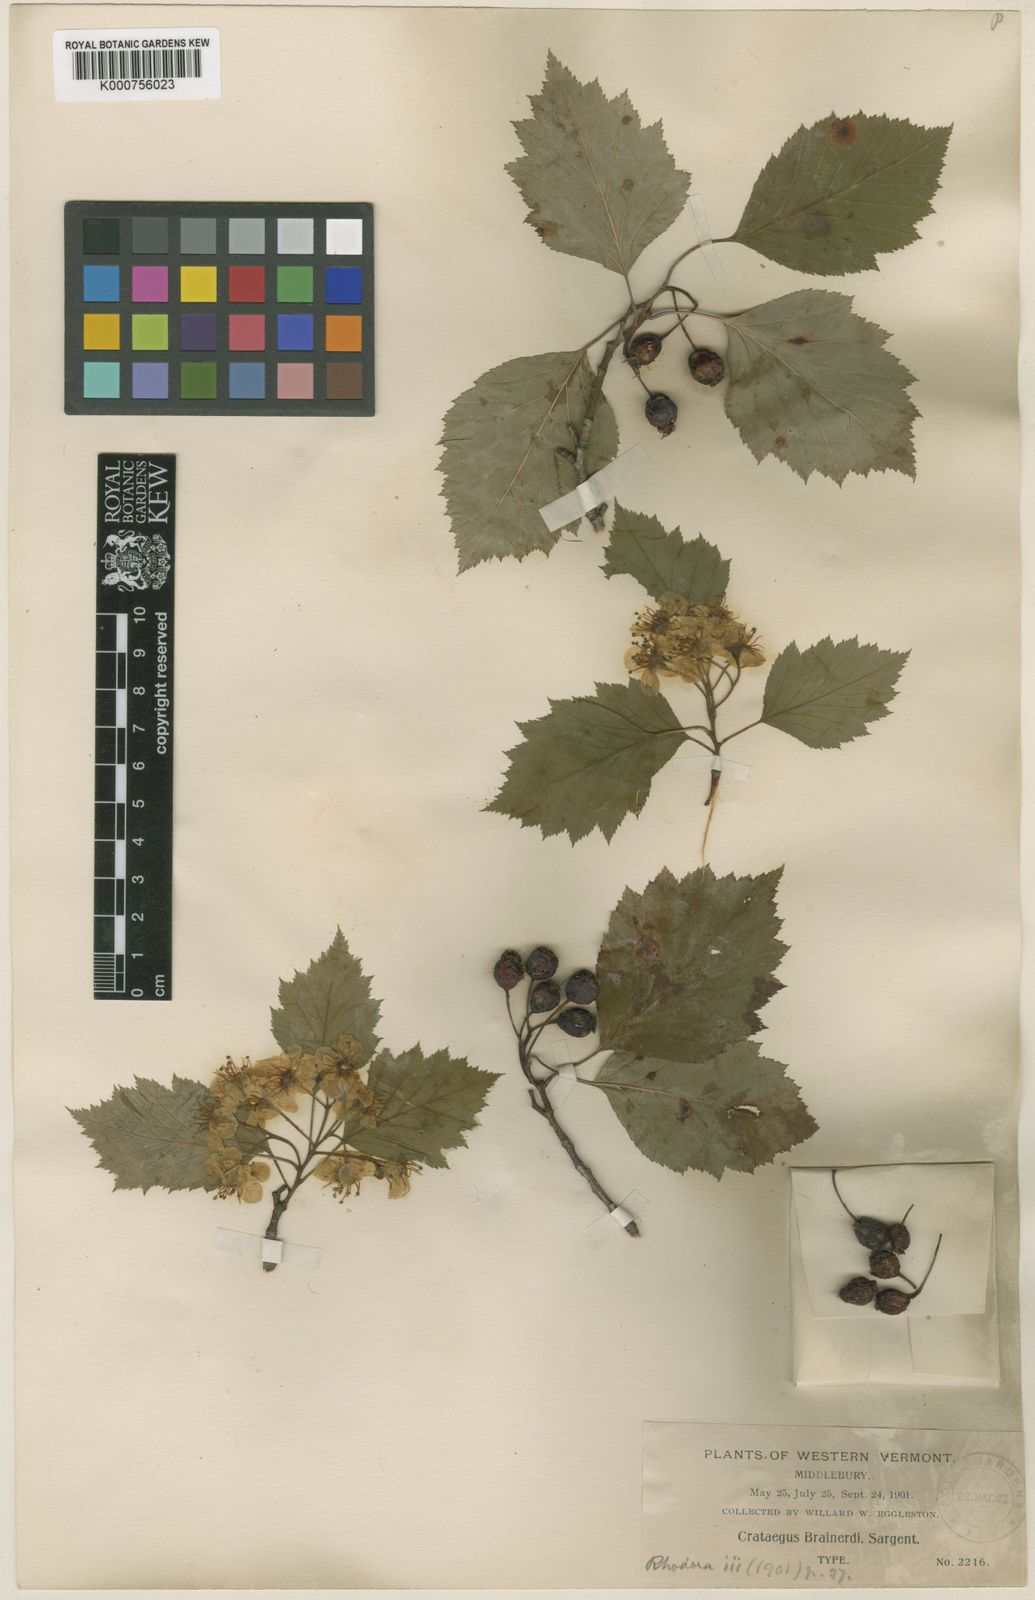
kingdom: Plantae
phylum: Tracheophyta
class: Magnoliopsida
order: Rosales
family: Rosaceae
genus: Crataegus
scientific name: Crataegus scabrida
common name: Rough hawthorn
